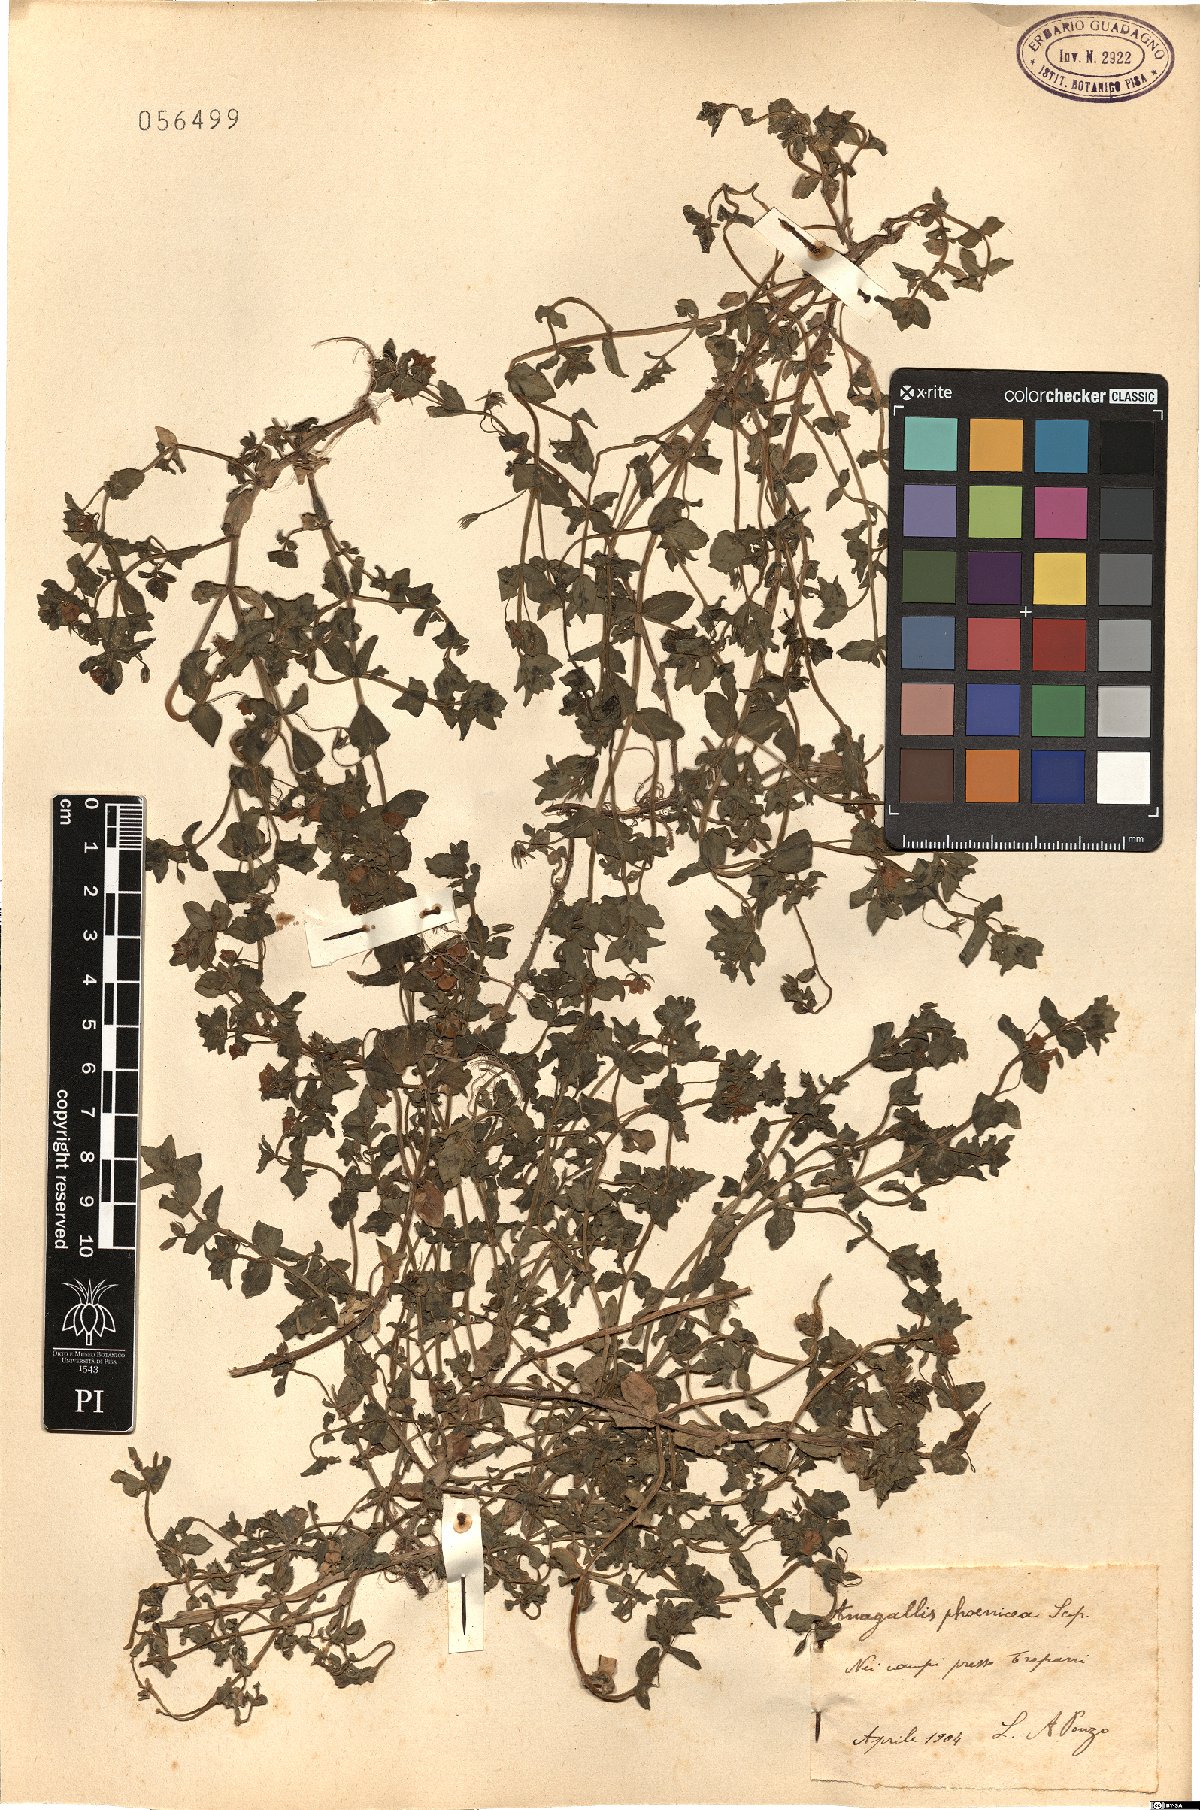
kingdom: Plantae
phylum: Tracheophyta
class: Magnoliopsida
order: Ericales
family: Primulaceae
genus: Lysimachia
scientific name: Lysimachia arvensis
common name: Scarlet pimpernel
